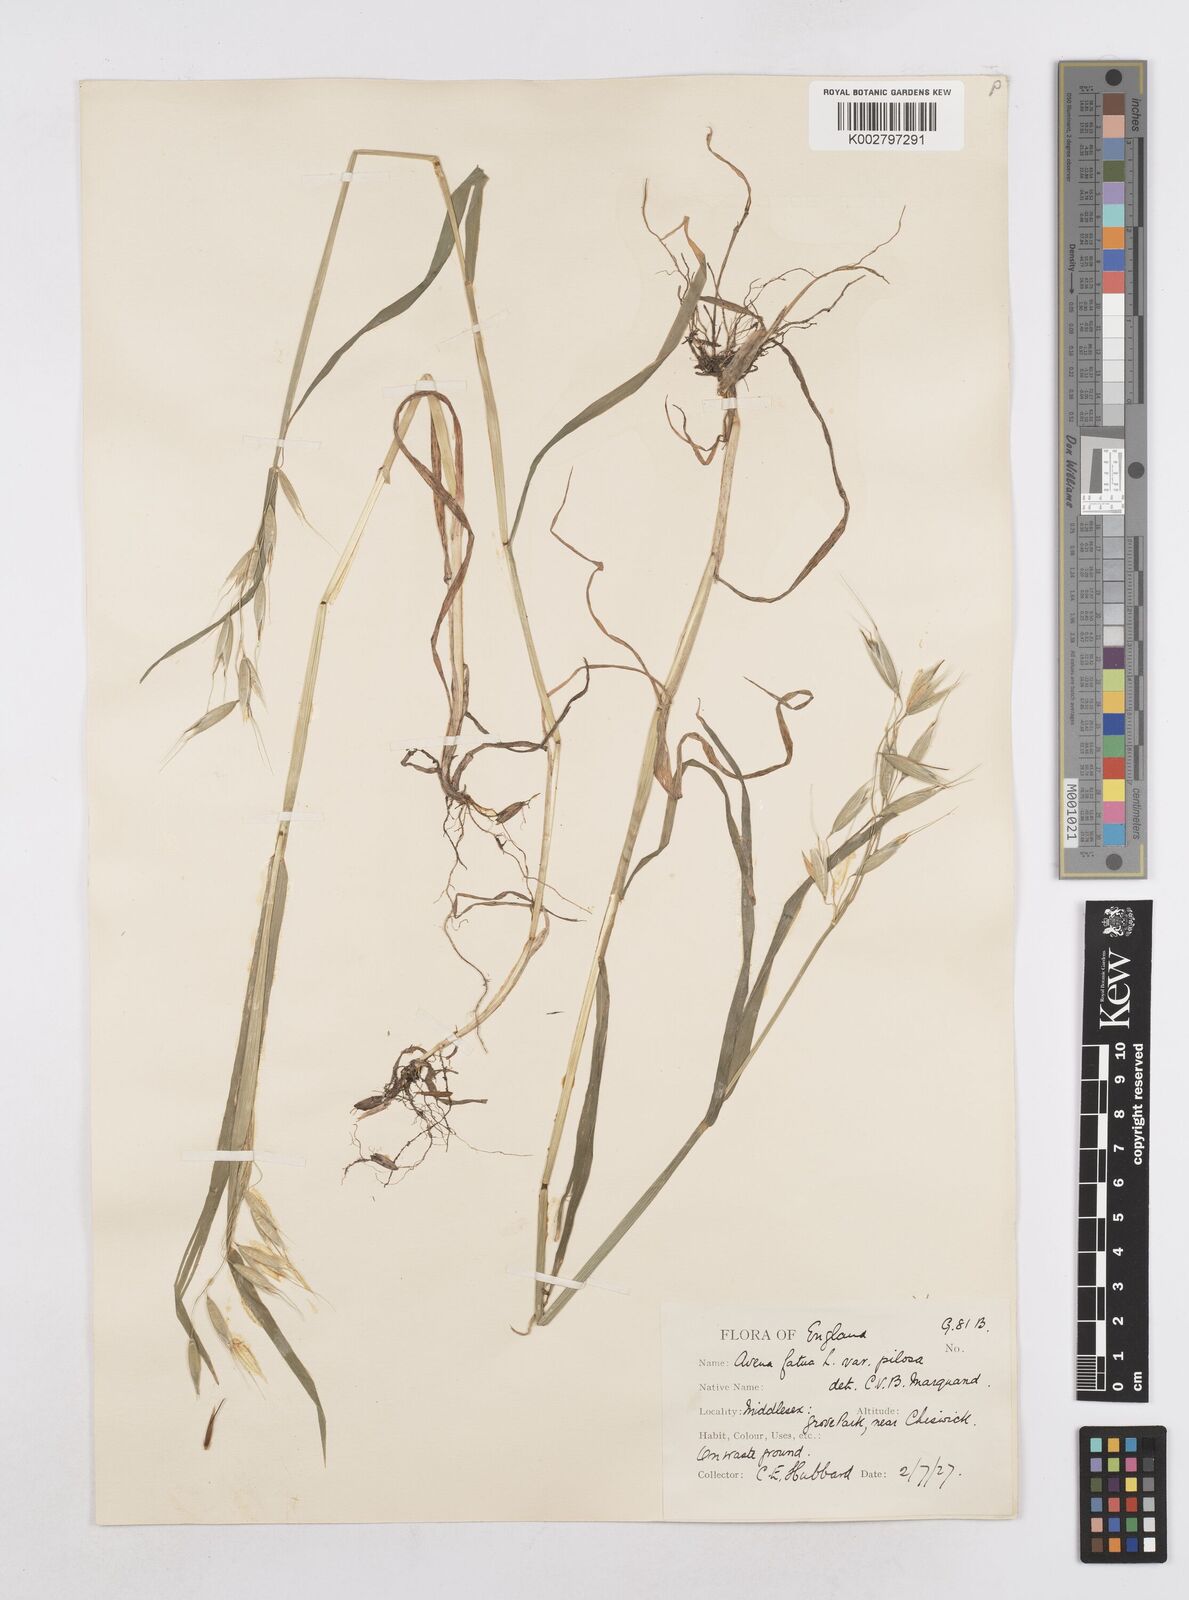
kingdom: Plantae
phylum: Tracheophyta
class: Liliopsida
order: Poales
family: Poaceae
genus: Avena
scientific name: Avena fatua
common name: Wild oat
